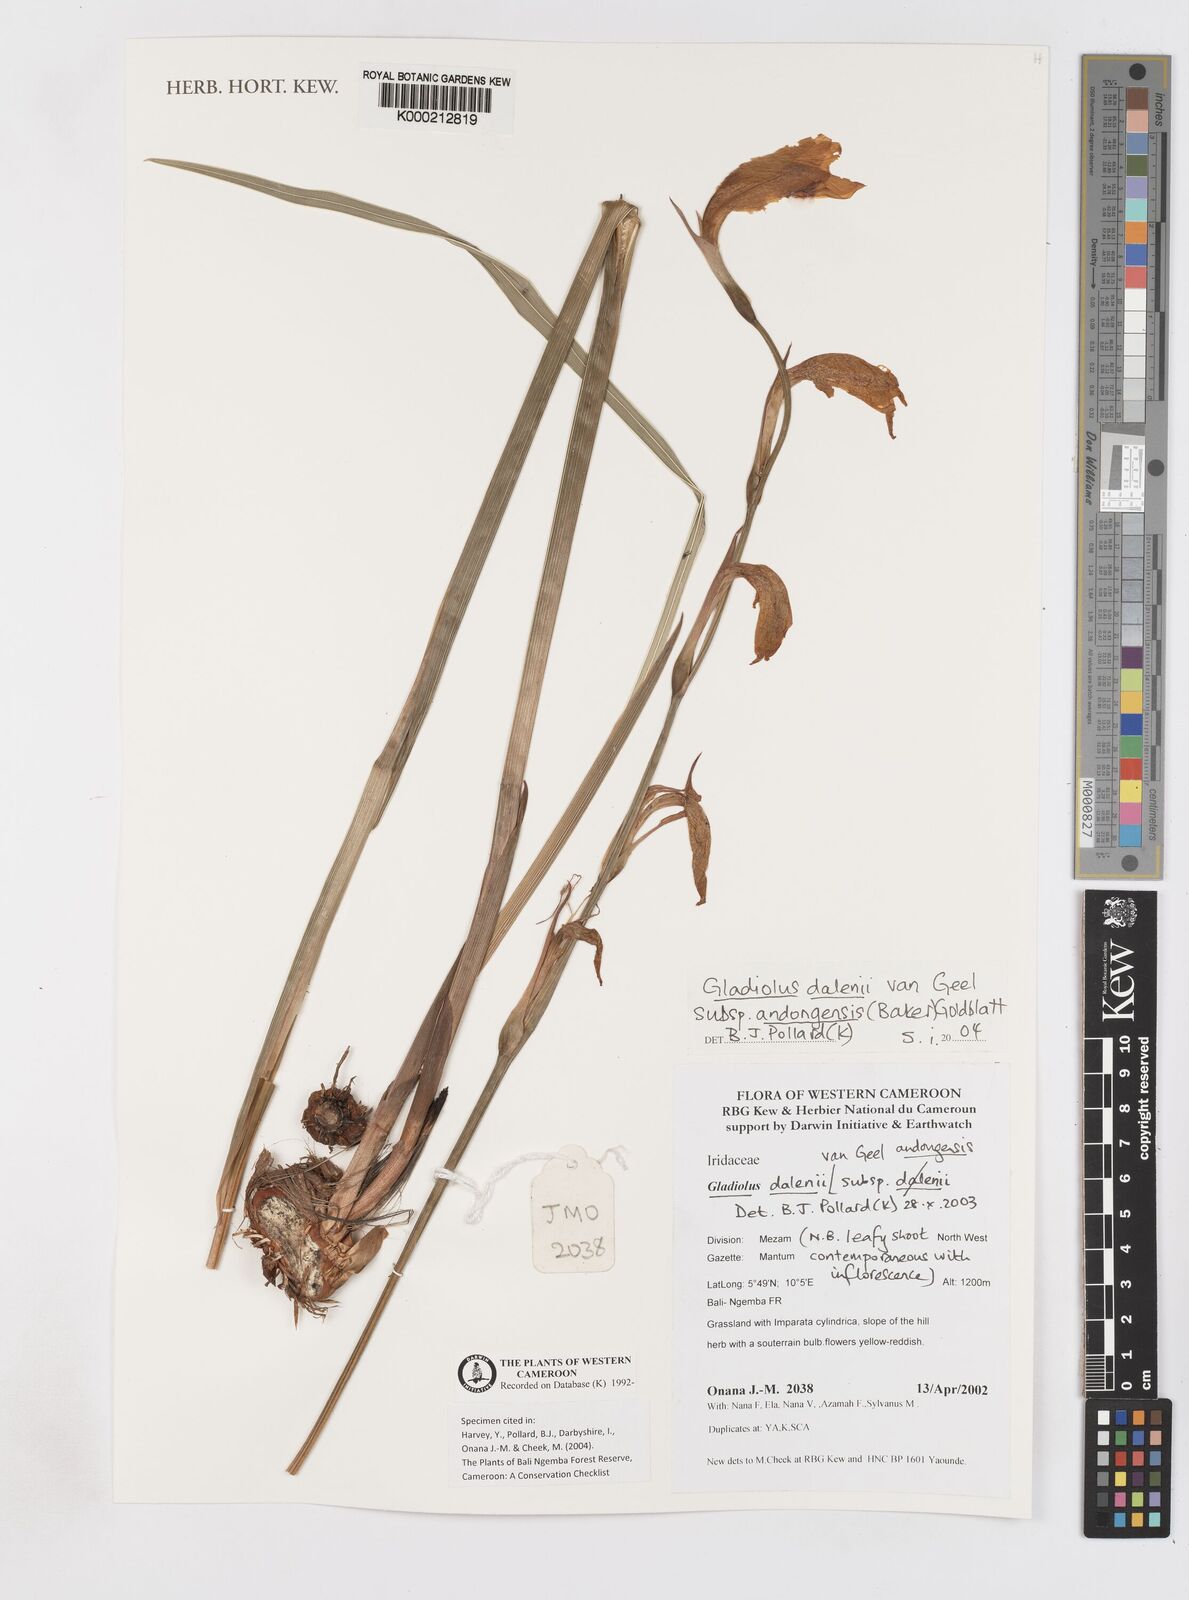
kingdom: Plantae
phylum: Tracheophyta
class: Liliopsida
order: Asparagales
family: Iridaceae
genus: Gladiolus
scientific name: Gladiolus dalenii
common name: Cornflag
